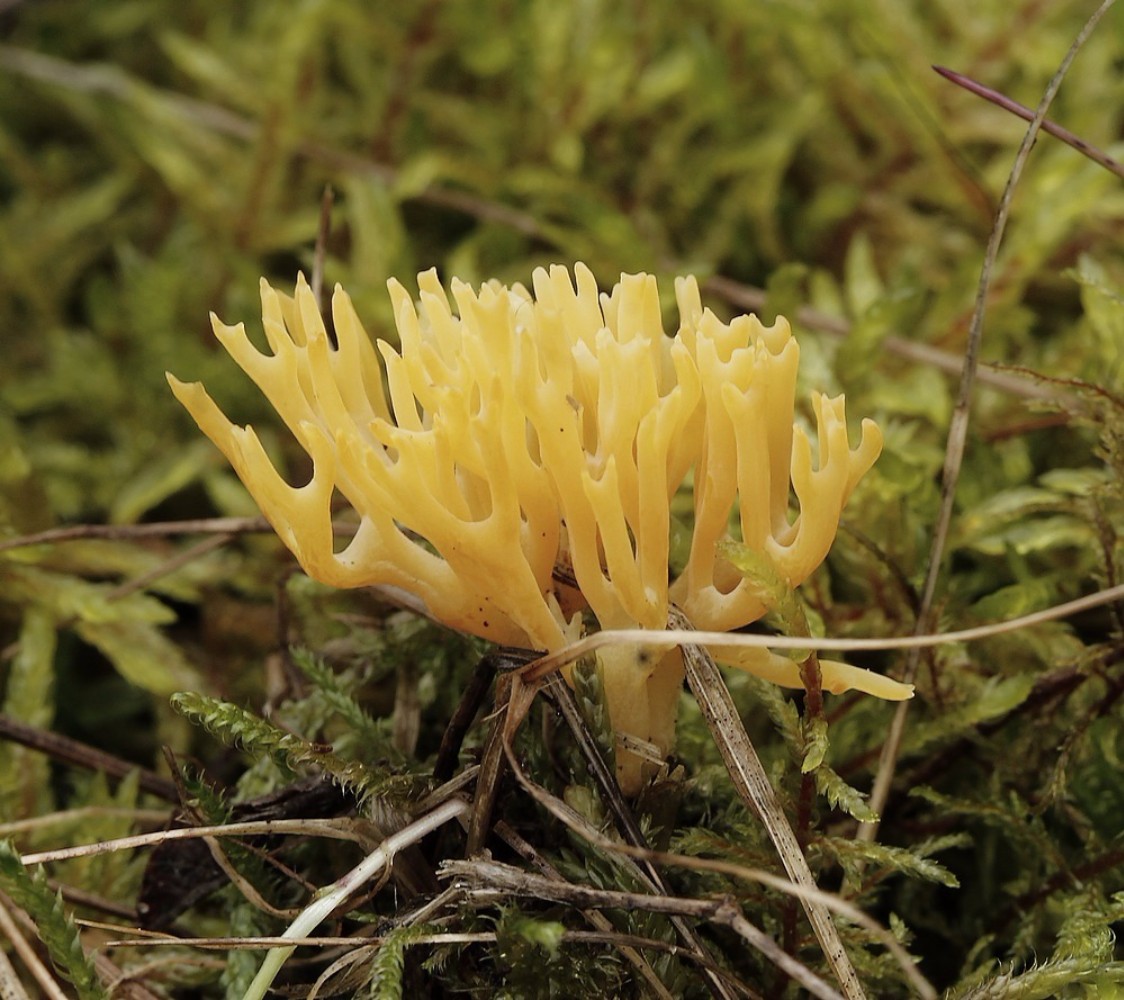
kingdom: Fungi
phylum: Basidiomycota
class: Dacrymycetes
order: Dacrymycetales
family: Dacrymycetaceae
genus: Calocera
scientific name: Calocera
